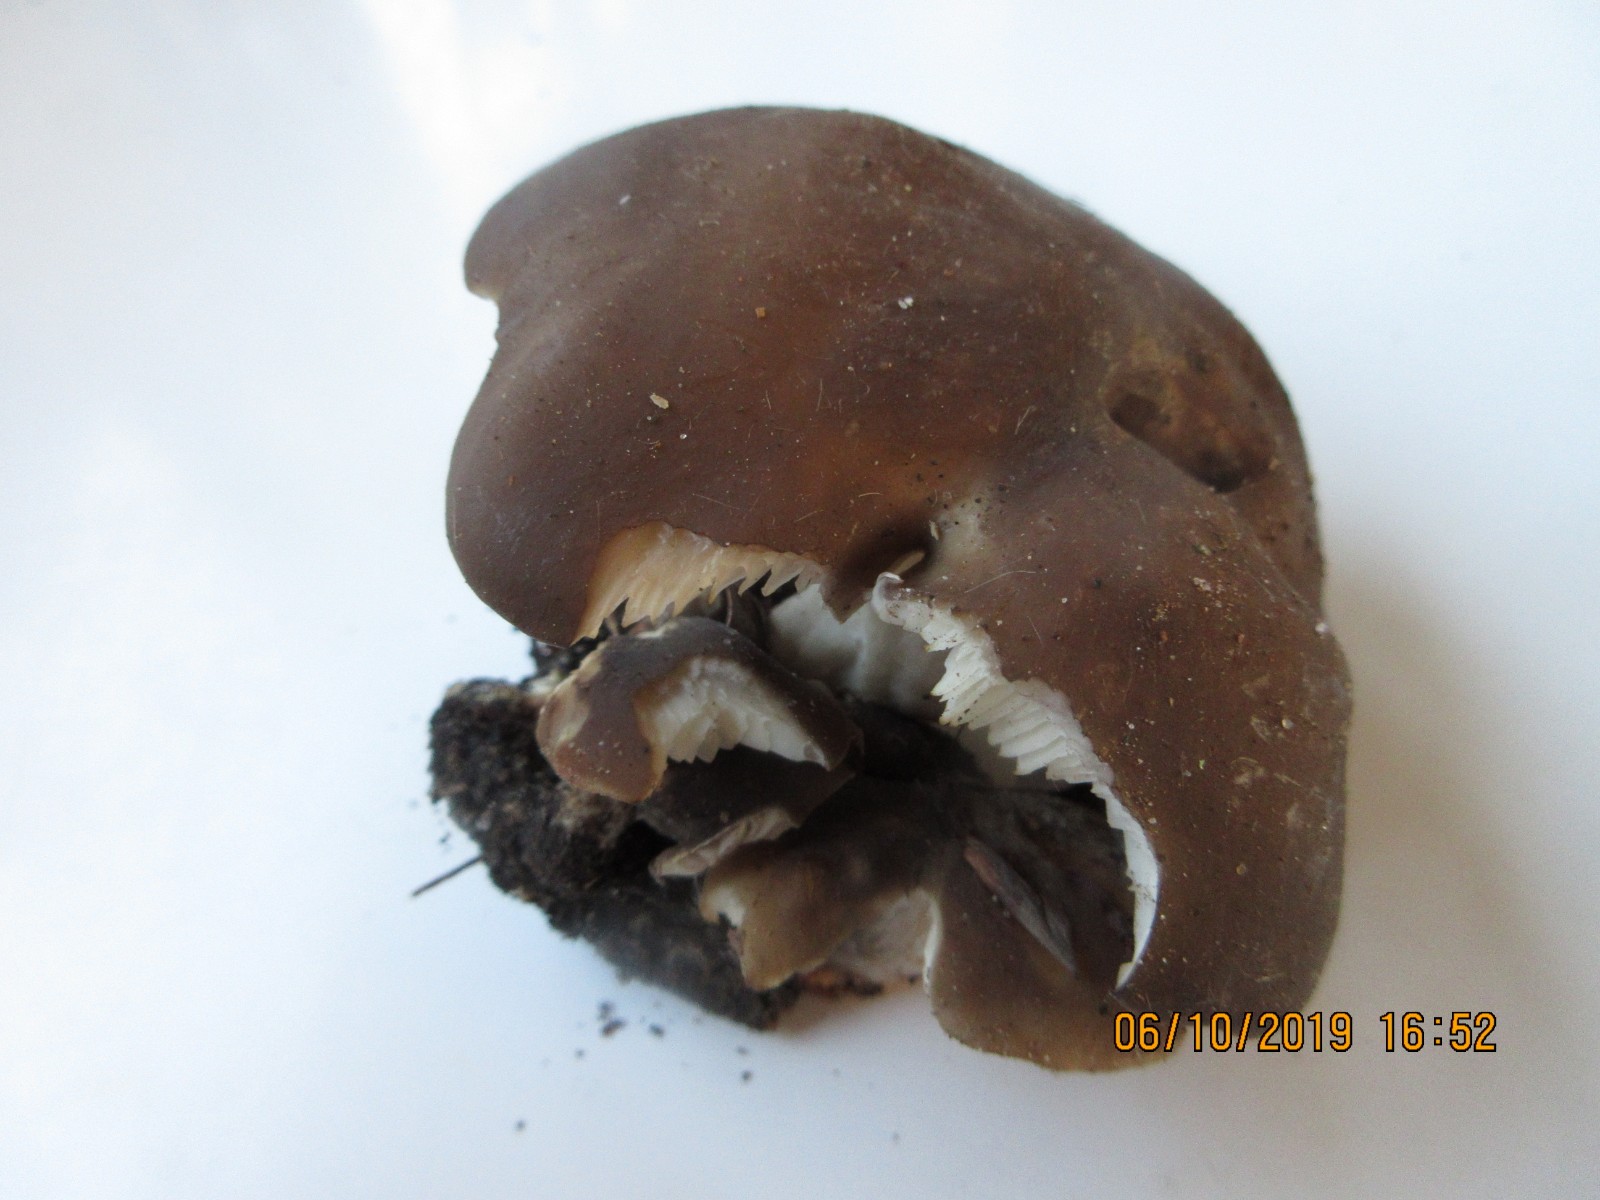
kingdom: Fungi
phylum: Basidiomycota
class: Agaricomycetes
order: Agaricales
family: Lyophyllaceae
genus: Lyophyllum
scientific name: Lyophyllum decastes
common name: røggrå gråblad
